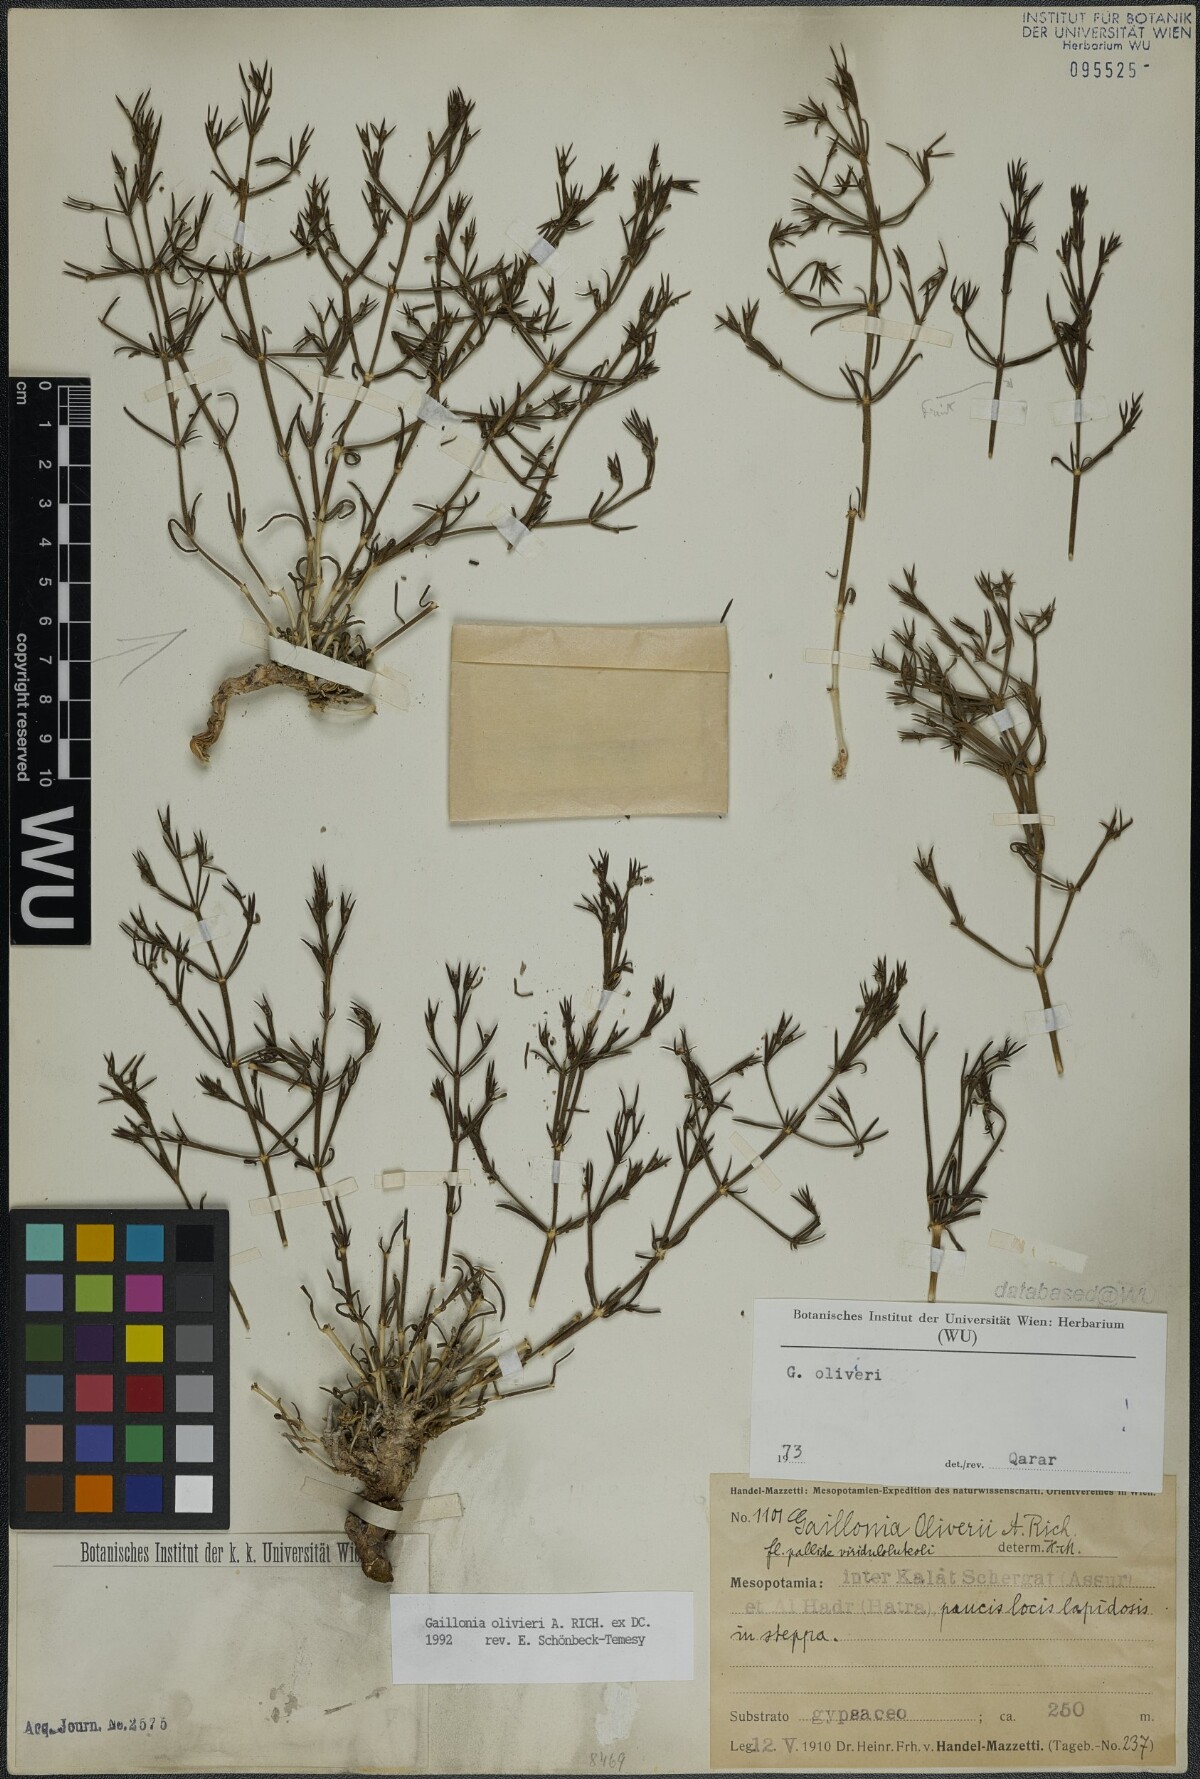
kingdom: Plantae
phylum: Tracheophyta
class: Magnoliopsida
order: Gentianales
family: Rubiaceae
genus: Plocama
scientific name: Plocama olivieri
